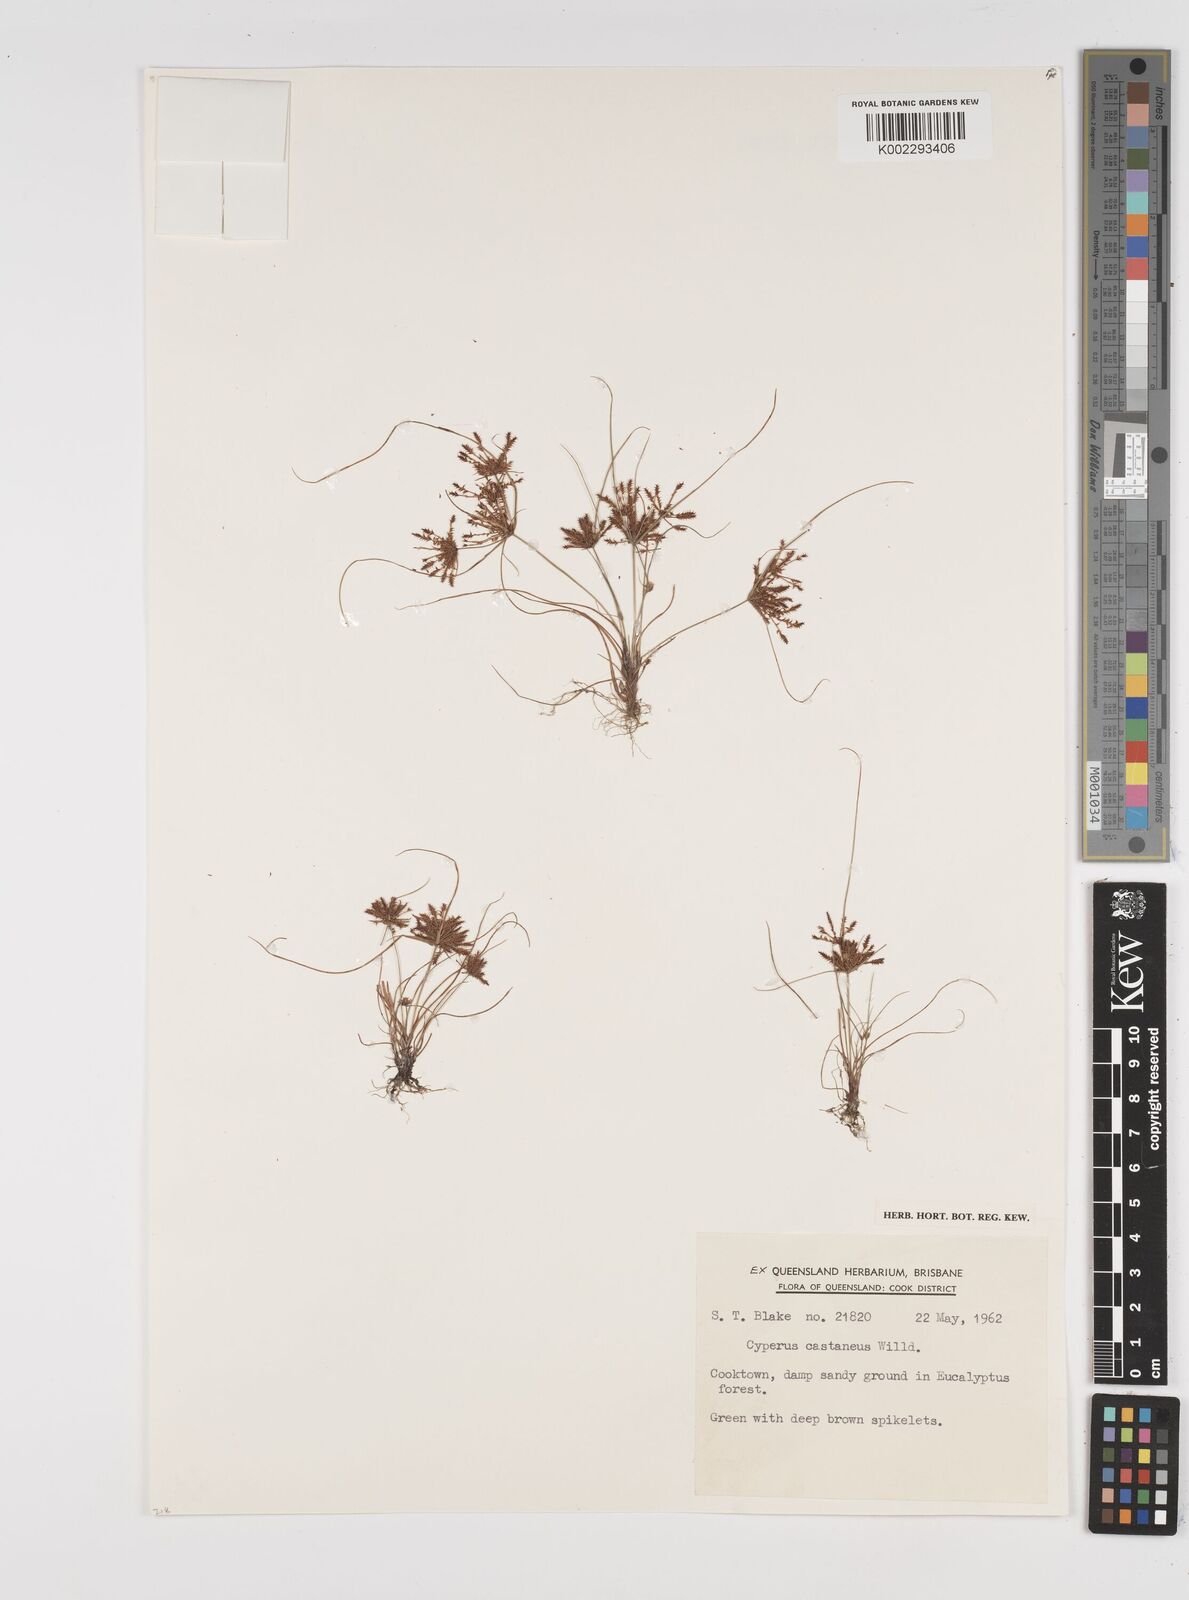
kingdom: Plantae
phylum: Tracheophyta
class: Liliopsida
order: Poales
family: Cyperaceae
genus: Cyperus
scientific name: Cyperus castaneus
